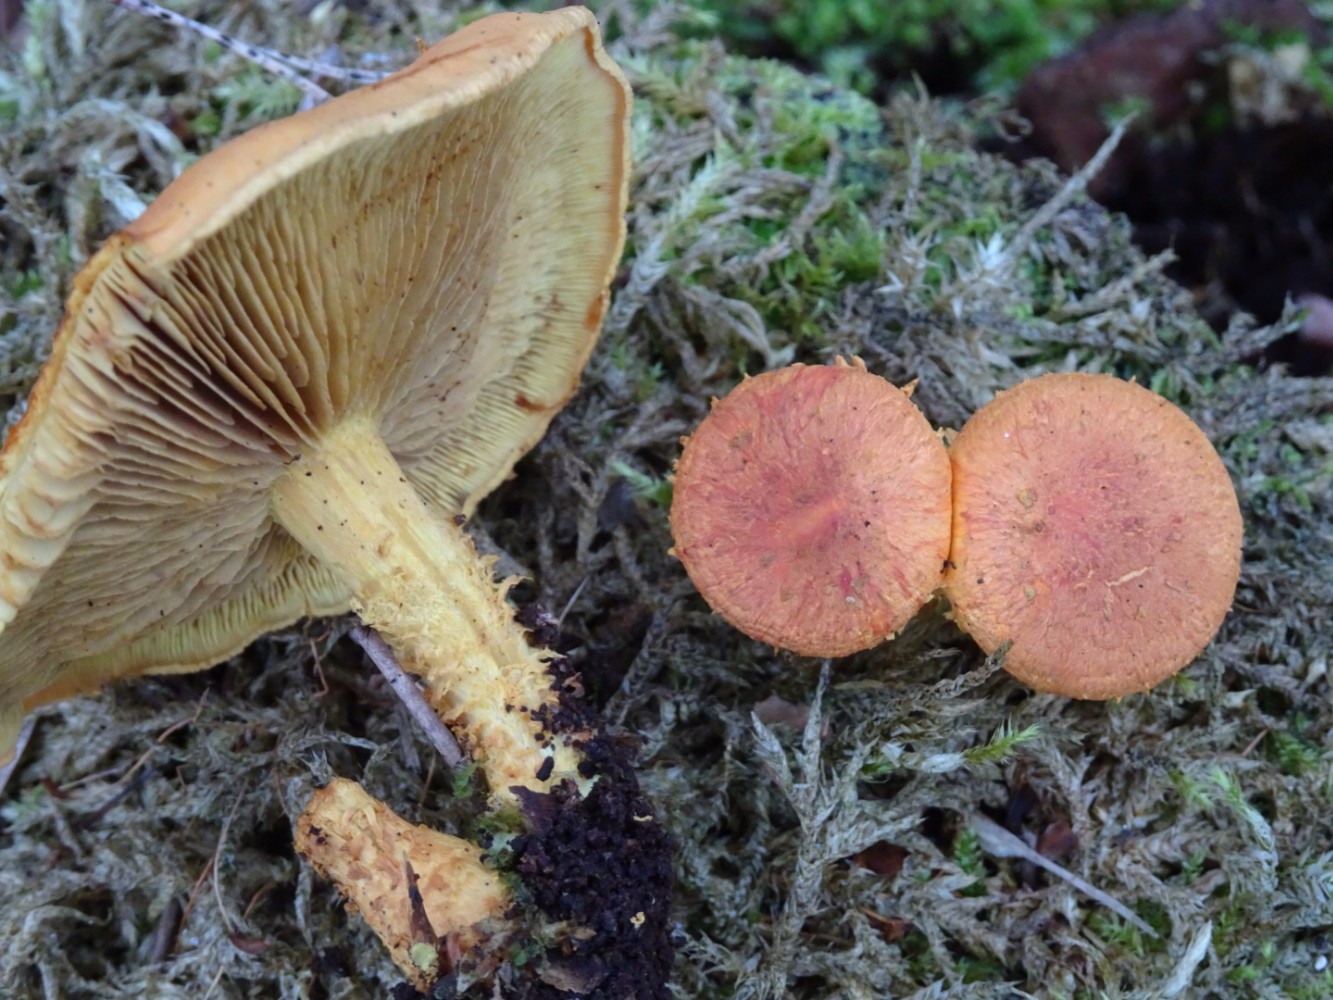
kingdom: Fungi
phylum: Basidiomycota
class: Agaricomycetes
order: Agaricales
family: Strophariaceae
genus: Pholiota
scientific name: Pholiota flammans
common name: flamme-skælhat
